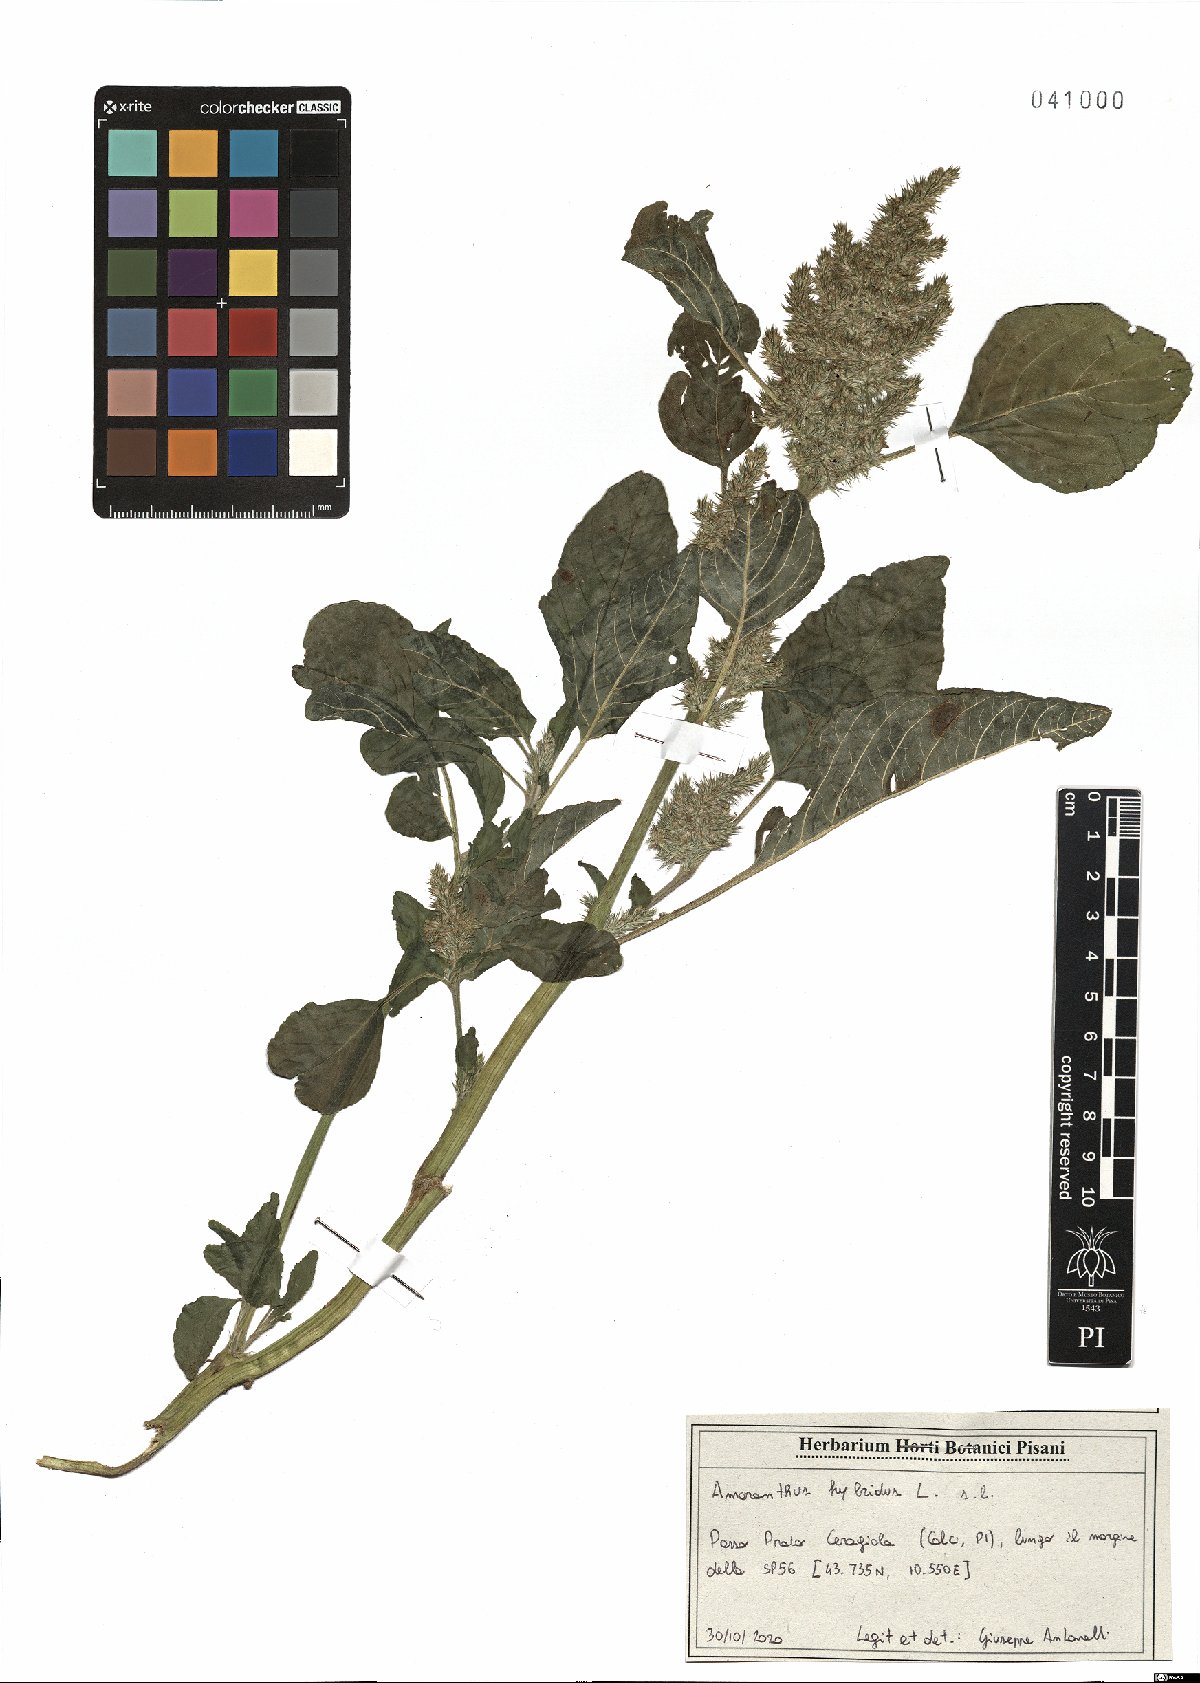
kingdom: Plantae
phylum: Tracheophyta
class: Magnoliopsida
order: Caryophyllales
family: Amaranthaceae
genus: Amaranthus
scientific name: Amaranthus hybridus
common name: Green amaranth
